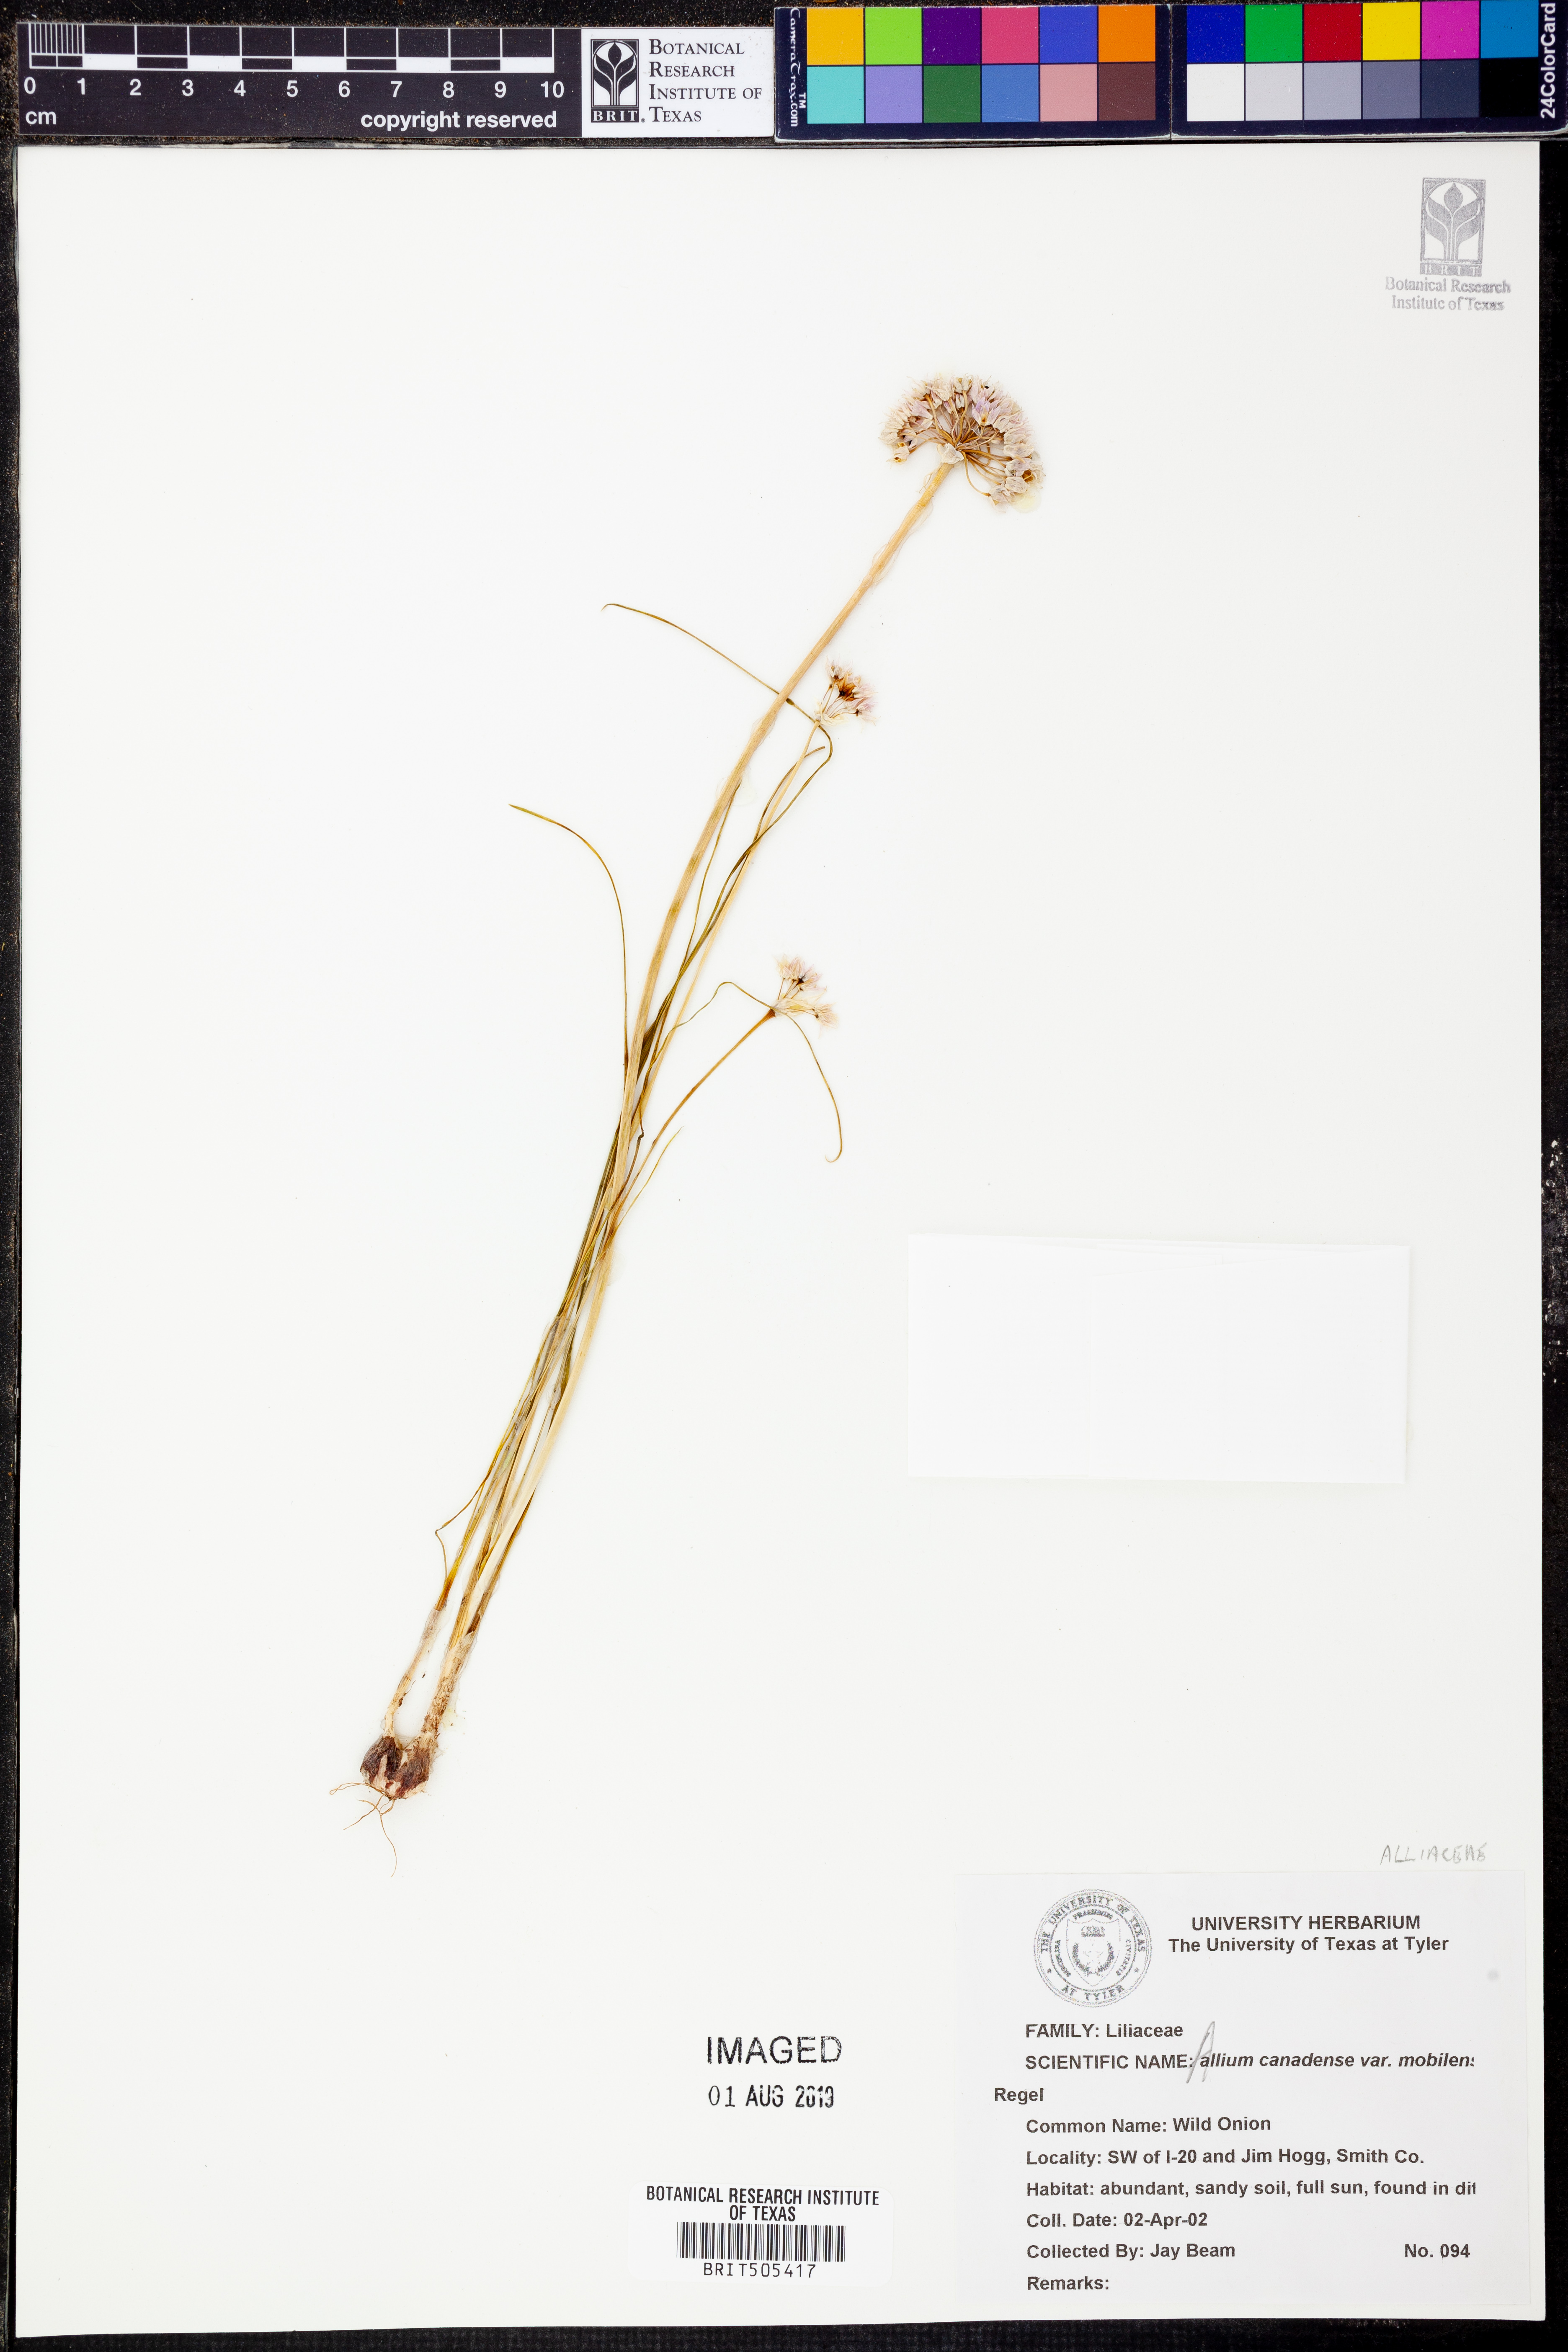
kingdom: Plantae
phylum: Tracheophyta
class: Liliopsida
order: Asparagales
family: Amaryllidaceae
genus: Allium
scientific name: Allium canadense
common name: Meadow garlic
